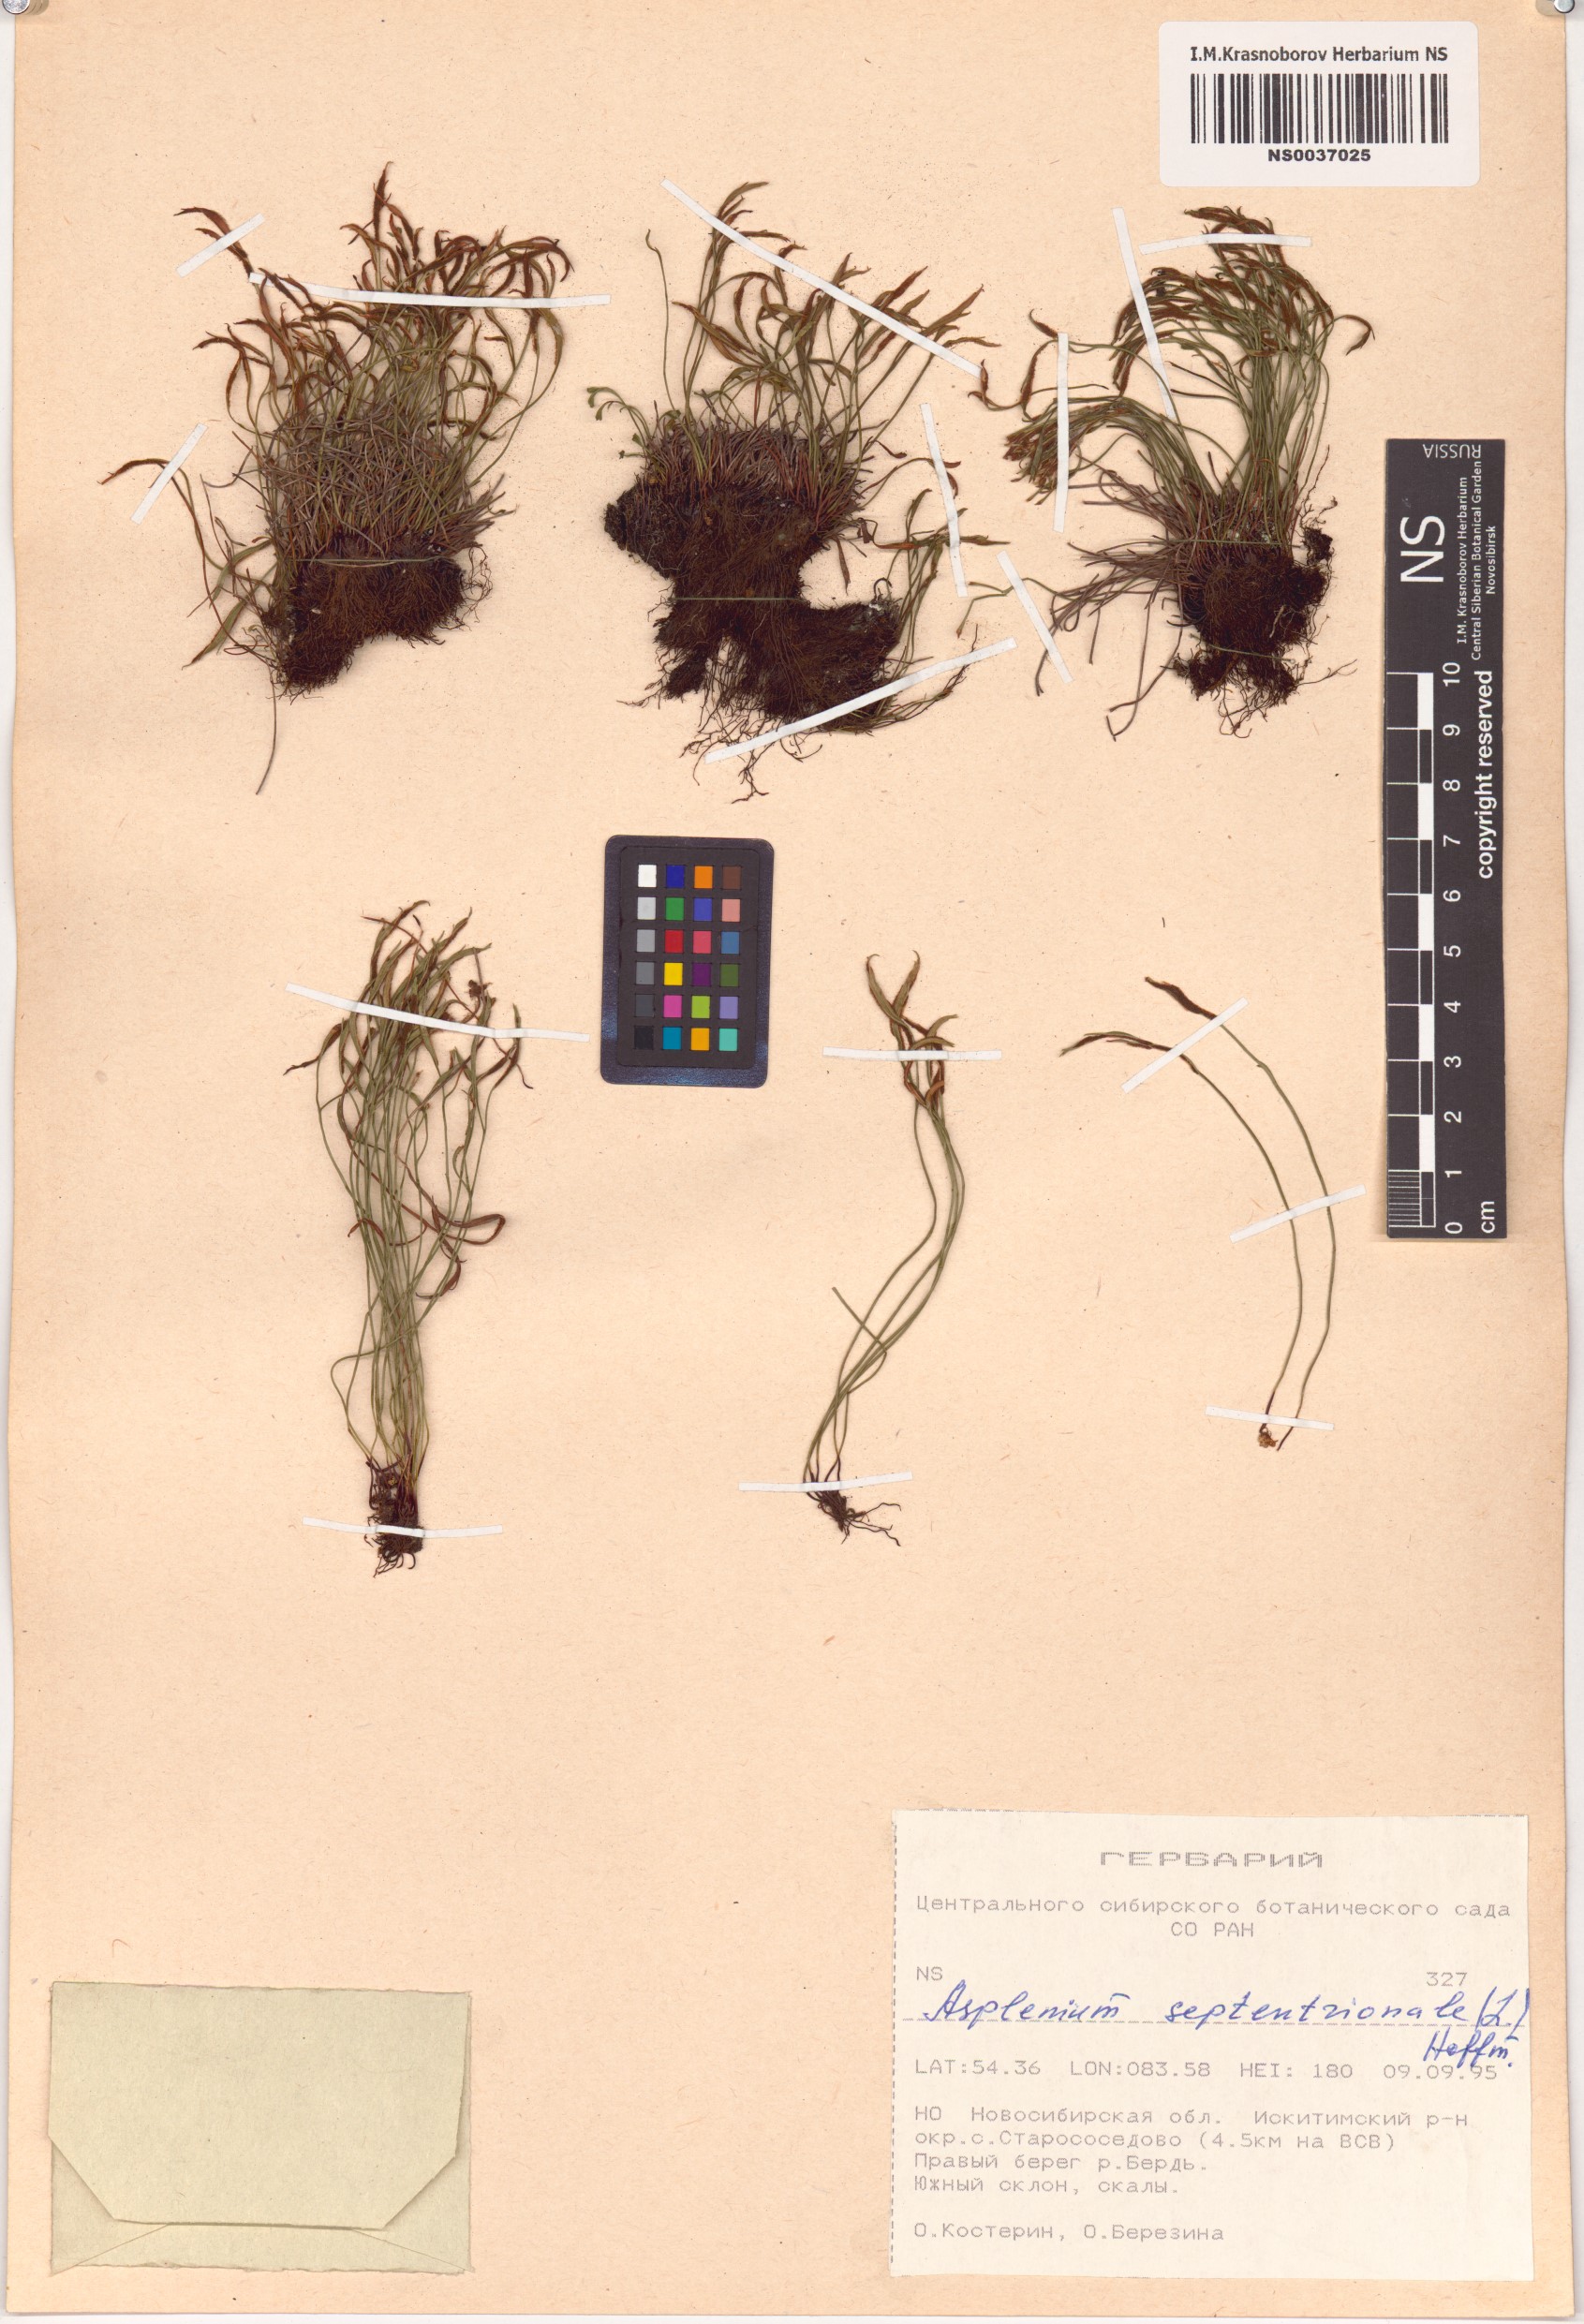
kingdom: Plantae
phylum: Tracheophyta
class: Polypodiopsida
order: Polypodiales
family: Aspleniaceae
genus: Asplenium
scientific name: Asplenium septentrionale
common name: Forked spleenwort
